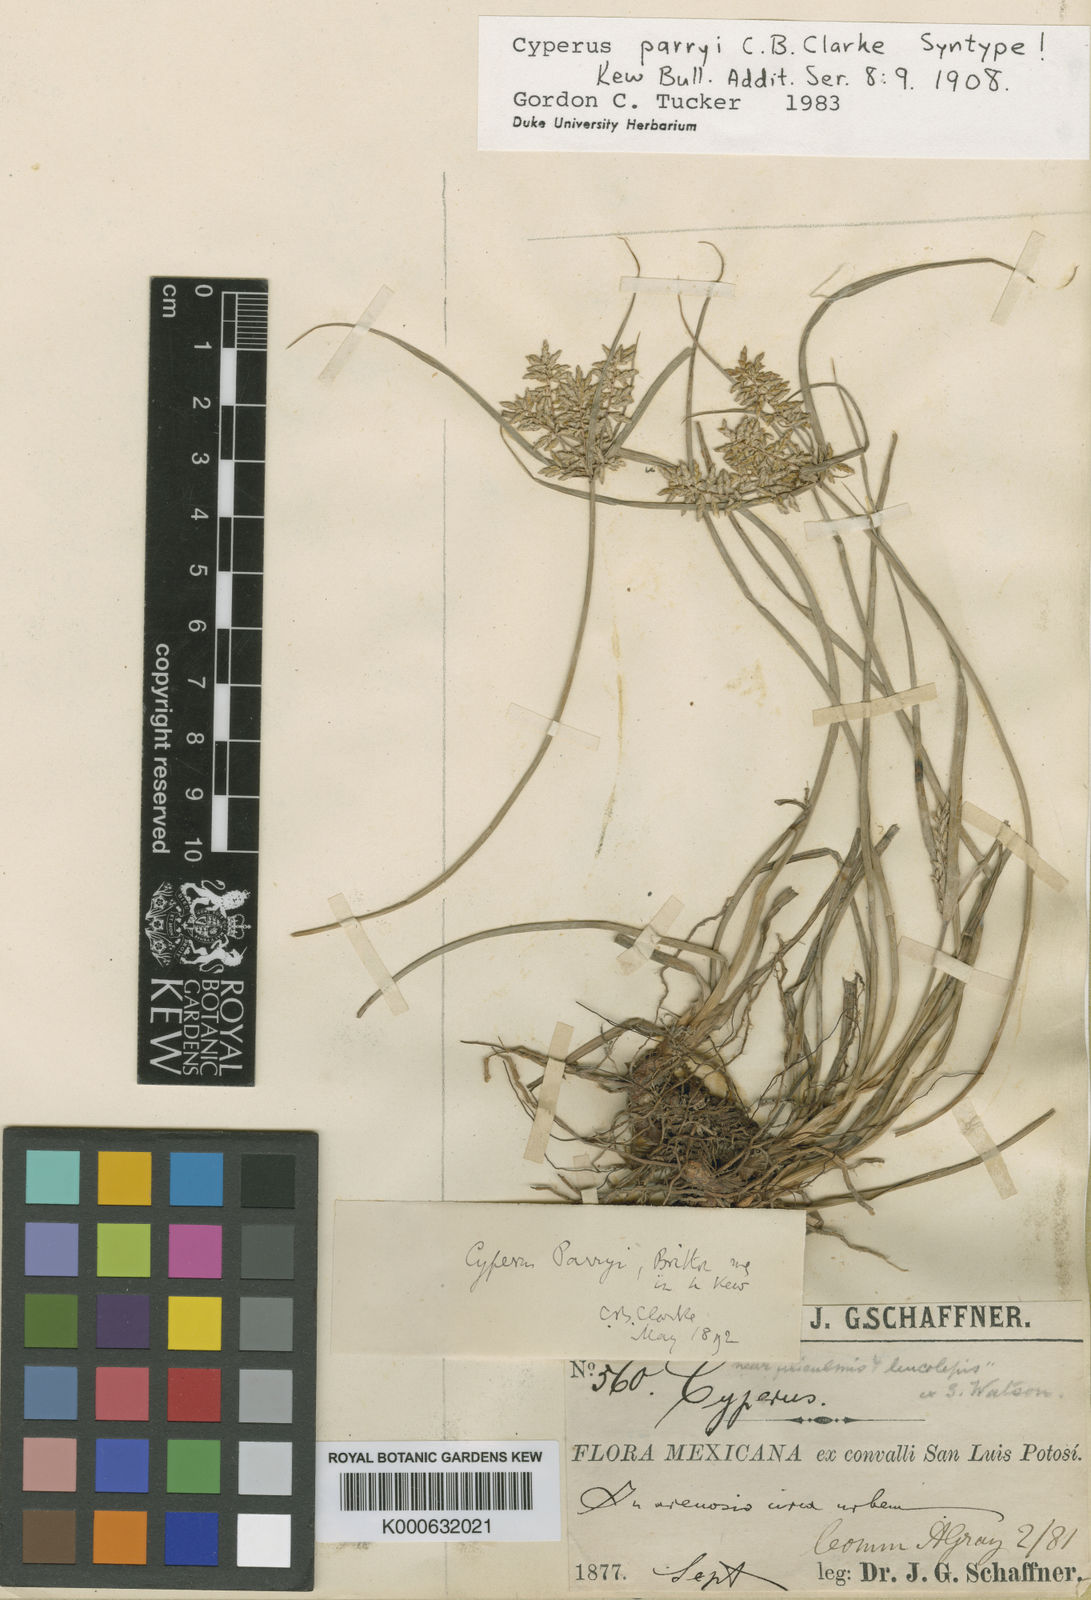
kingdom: Plantae
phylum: Tracheophyta
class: Liliopsida
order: Poales
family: Cyperaceae
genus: Cyperus
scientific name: Cyperus spectabilis
